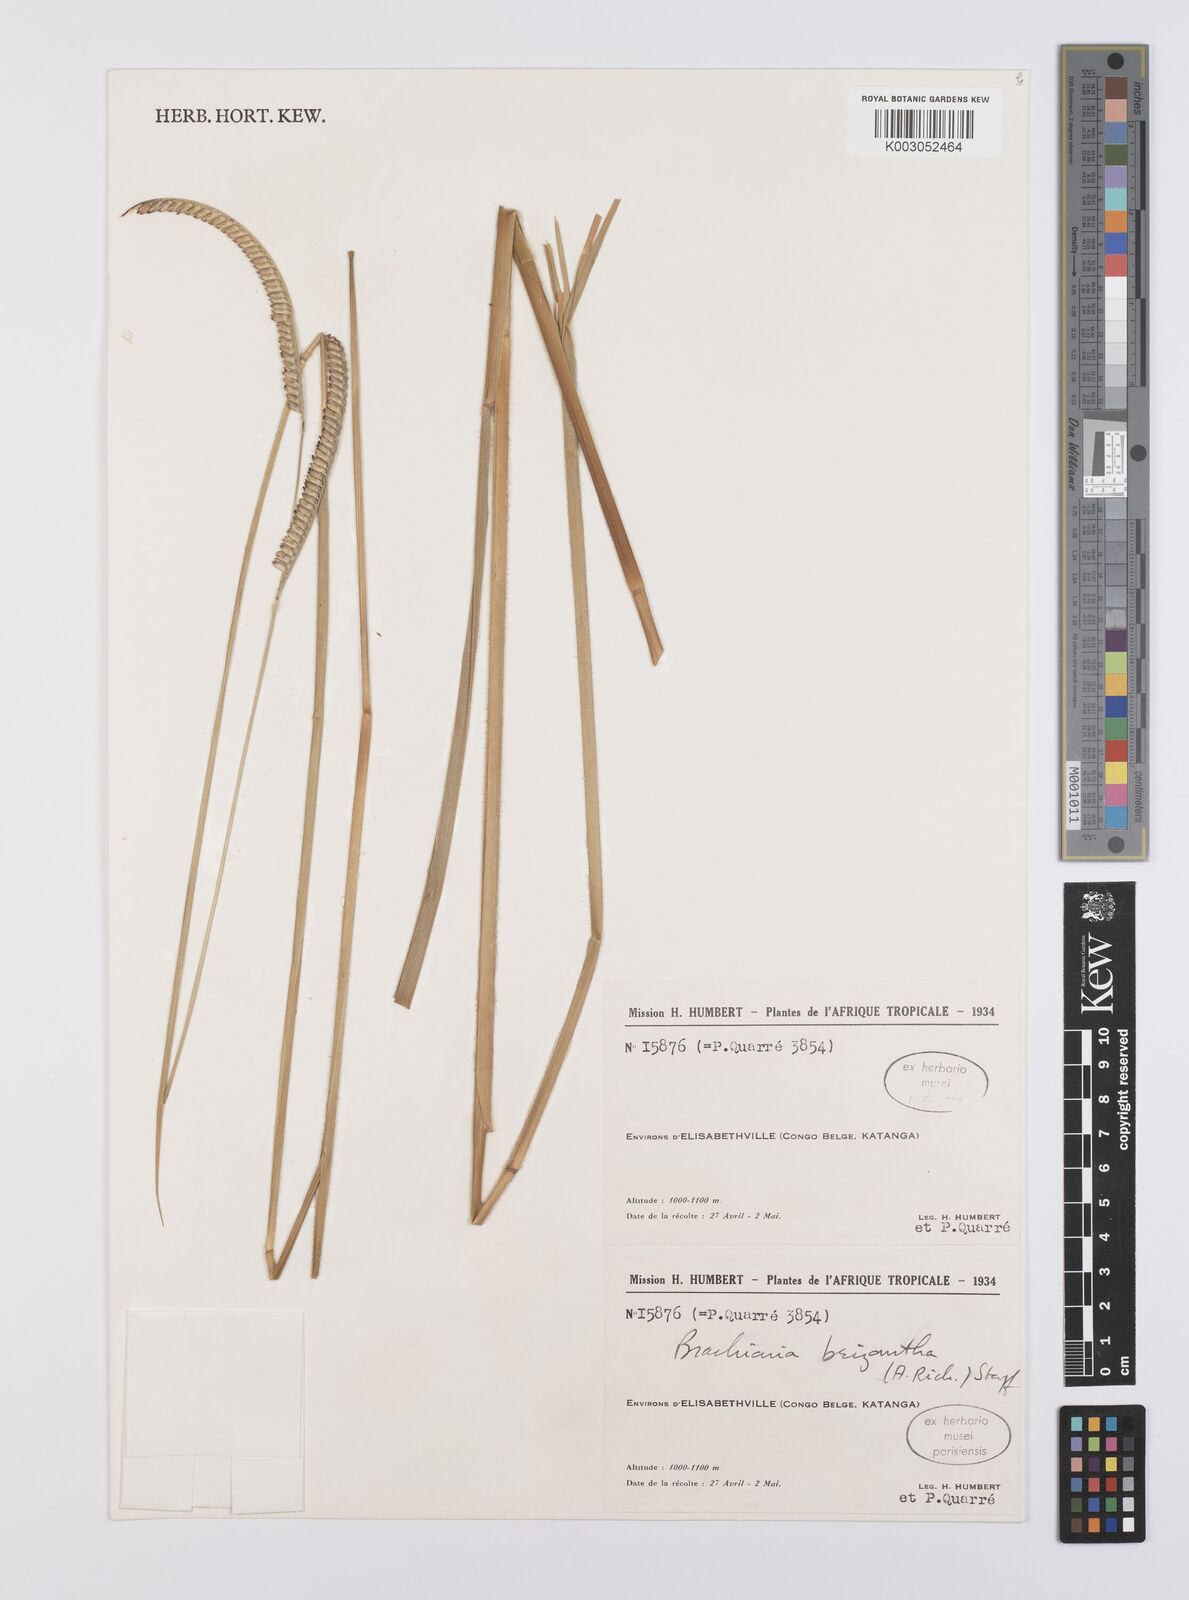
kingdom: Plantae
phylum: Tracheophyta
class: Liliopsida
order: Poales
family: Poaceae
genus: Urochloa
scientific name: Urochloa brizantha
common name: Palisade signalgrass
